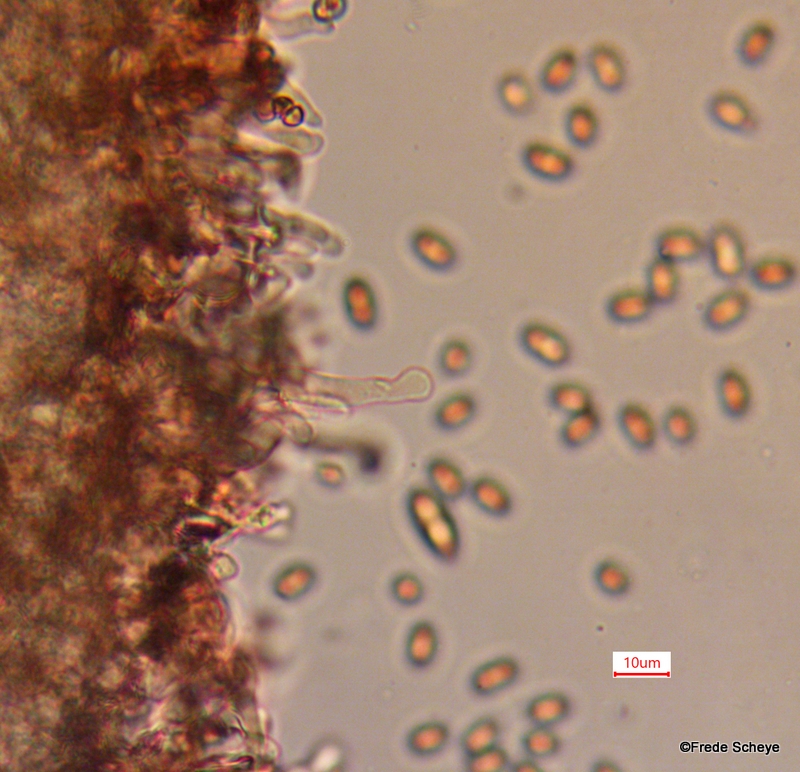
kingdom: Fungi
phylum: Basidiomycota
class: Agaricomycetes
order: Agaricales
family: Bolbitiaceae
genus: Conocybe
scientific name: Conocybe aporos
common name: tidlig dansehat
